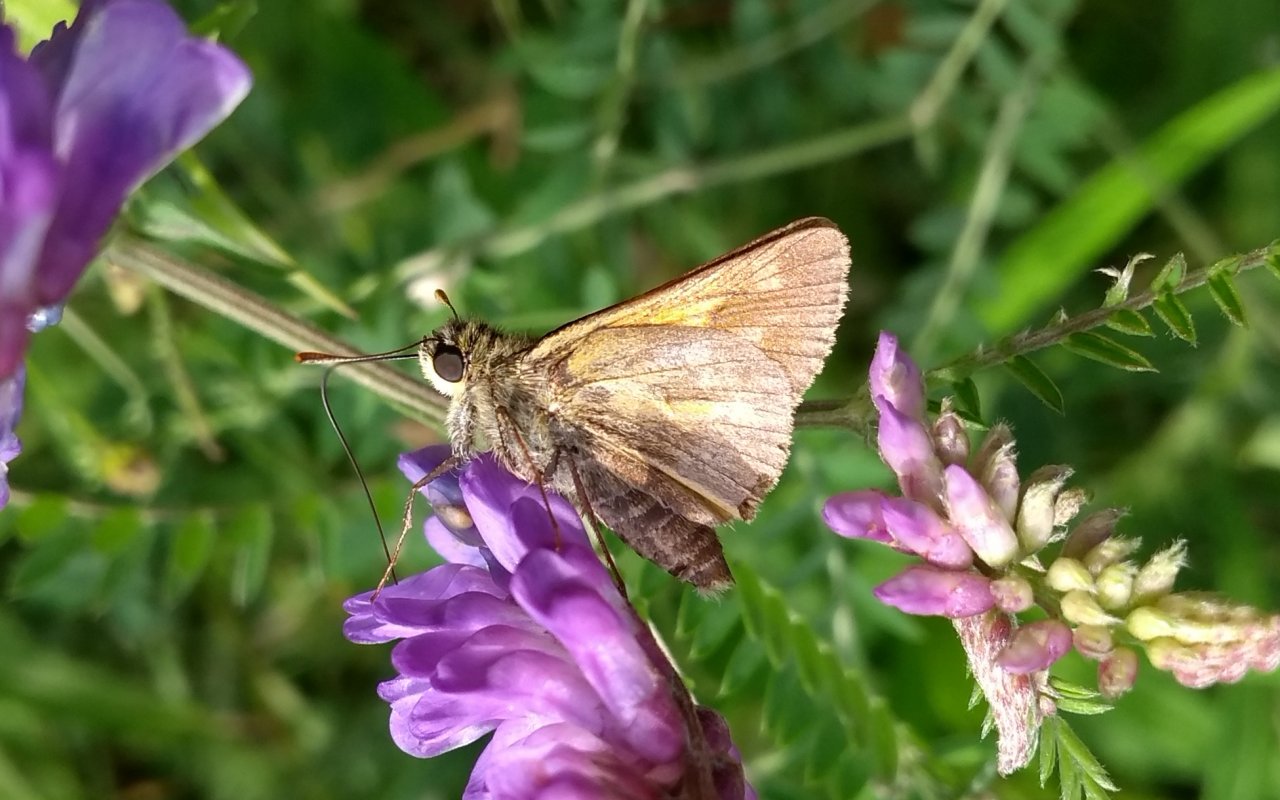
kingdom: Animalia
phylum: Arthropoda
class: Insecta
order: Lepidoptera
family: Hesperiidae
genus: Polites
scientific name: Polites
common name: Long Dash Skipper
